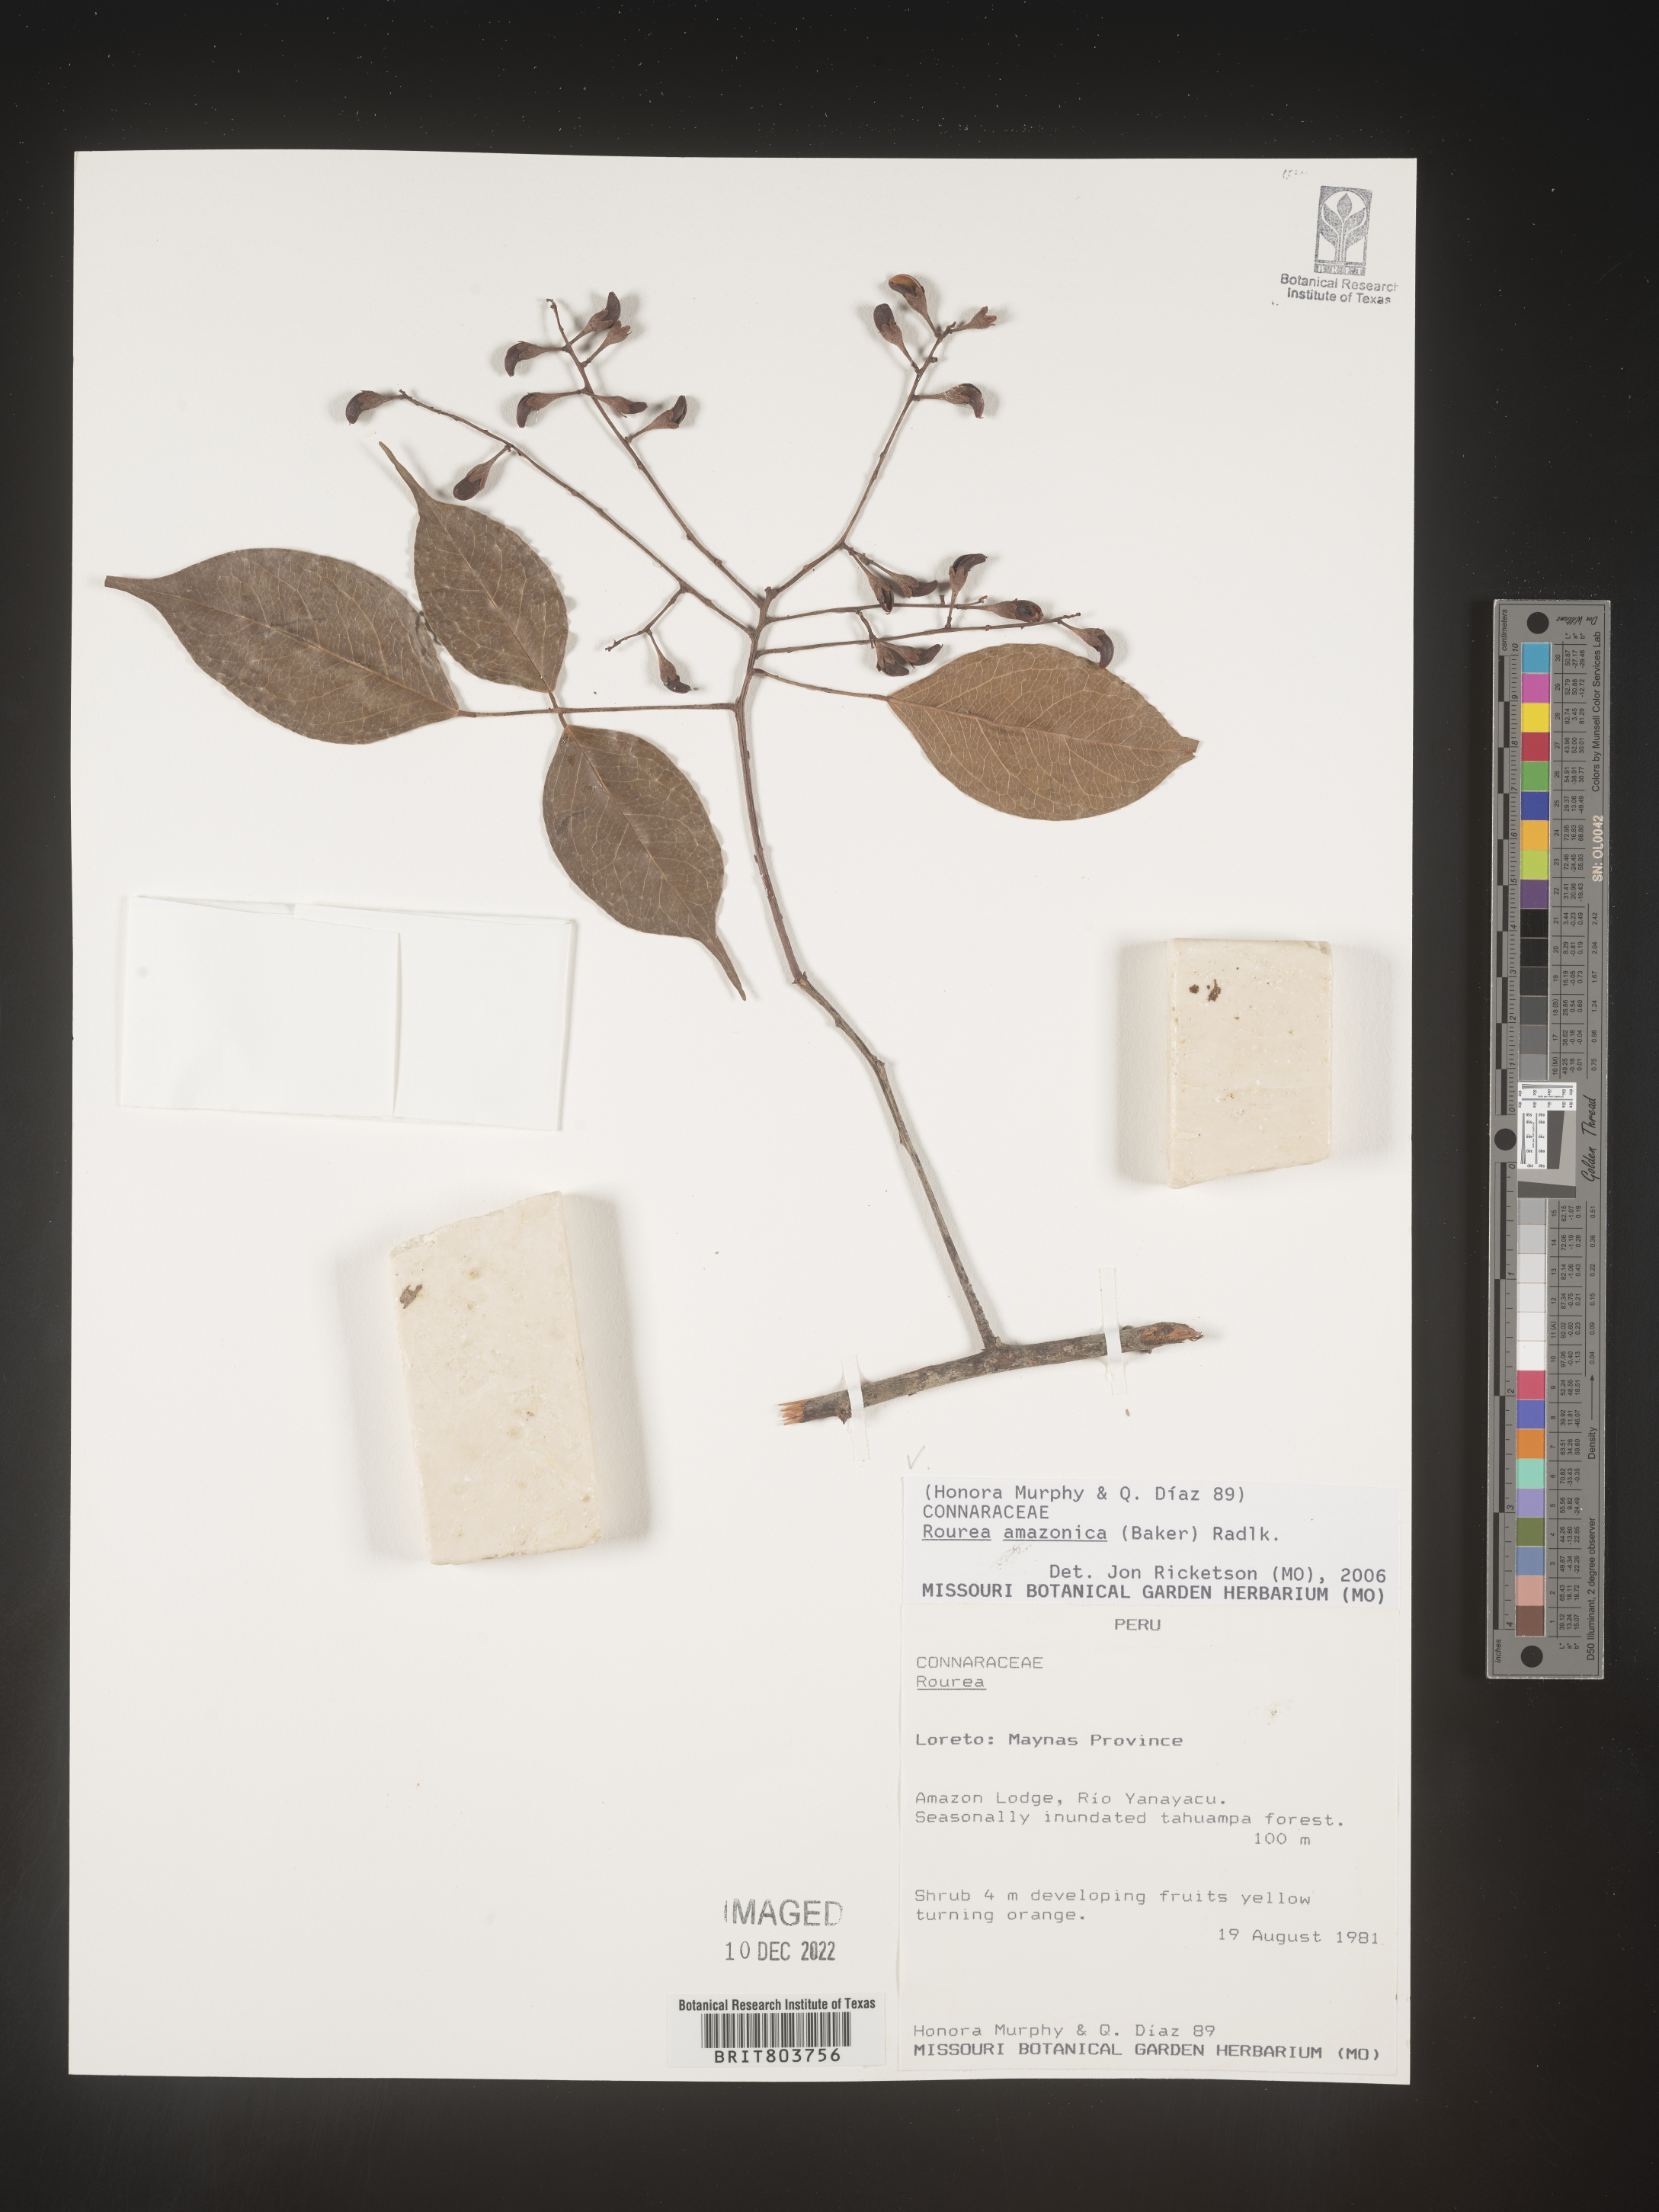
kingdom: Plantae
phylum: Tracheophyta
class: Magnoliopsida
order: Oxalidales
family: Connaraceae
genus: Rourea
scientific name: Rourea
